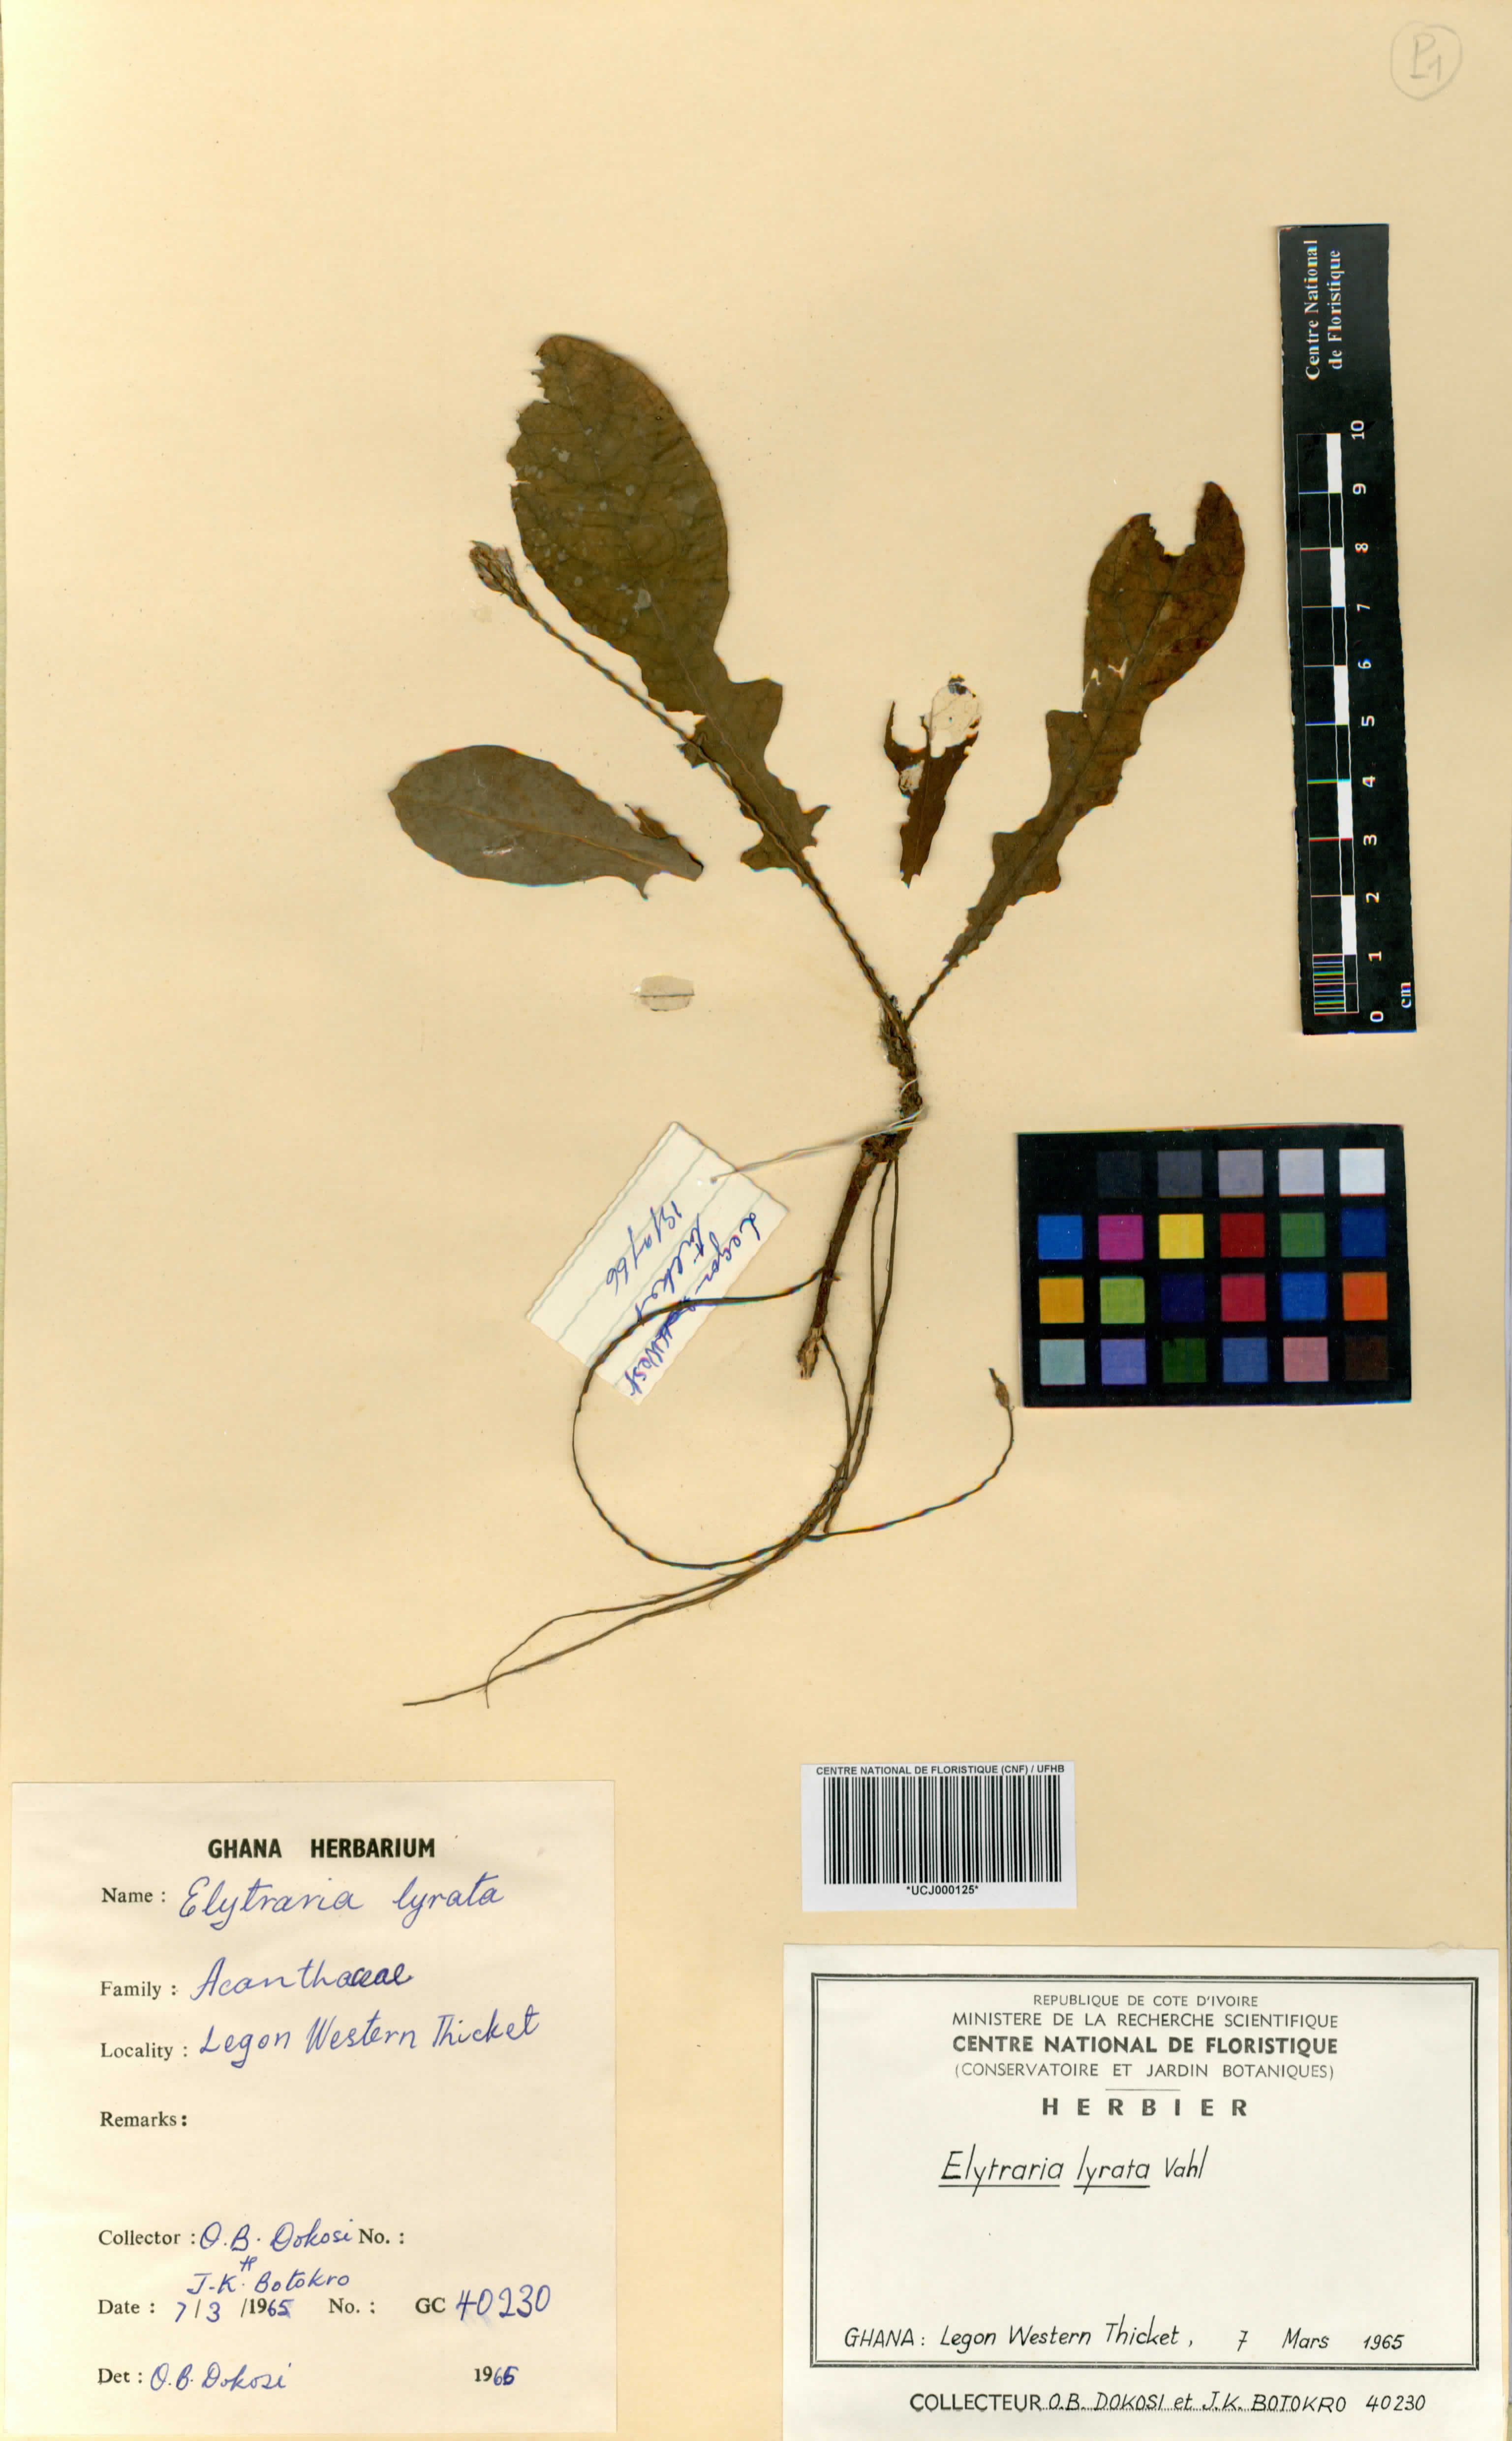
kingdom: Plantae
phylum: Tracheophyta
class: Magnoliopsida
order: Lamiales
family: Acanthaceae
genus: Elytraria
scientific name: Elytraria acaulis
